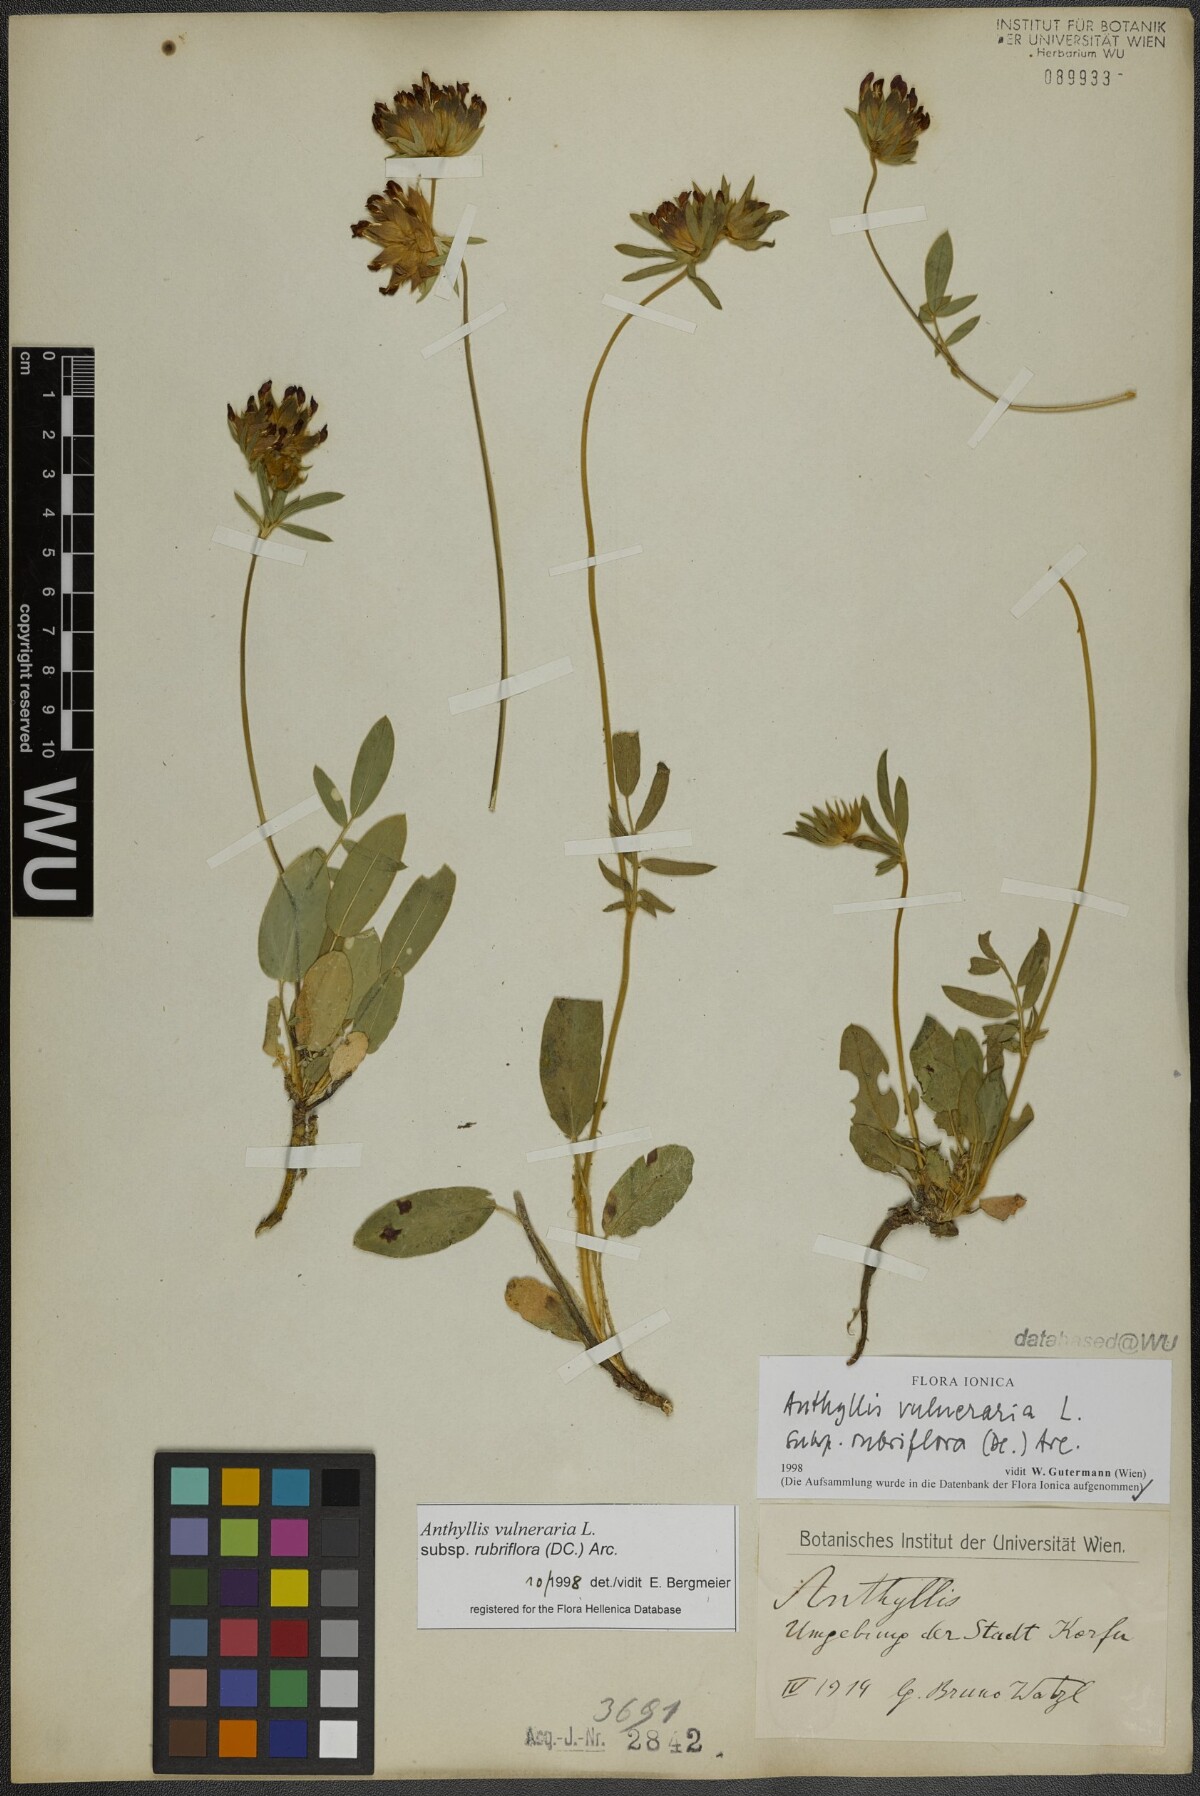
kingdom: Plantae
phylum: Tracheophyta
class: Magnoliopsida
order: Fabales
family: Fabaceae
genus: Anthyllis
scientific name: Anthyllis vulneraria
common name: Kidney vetch
